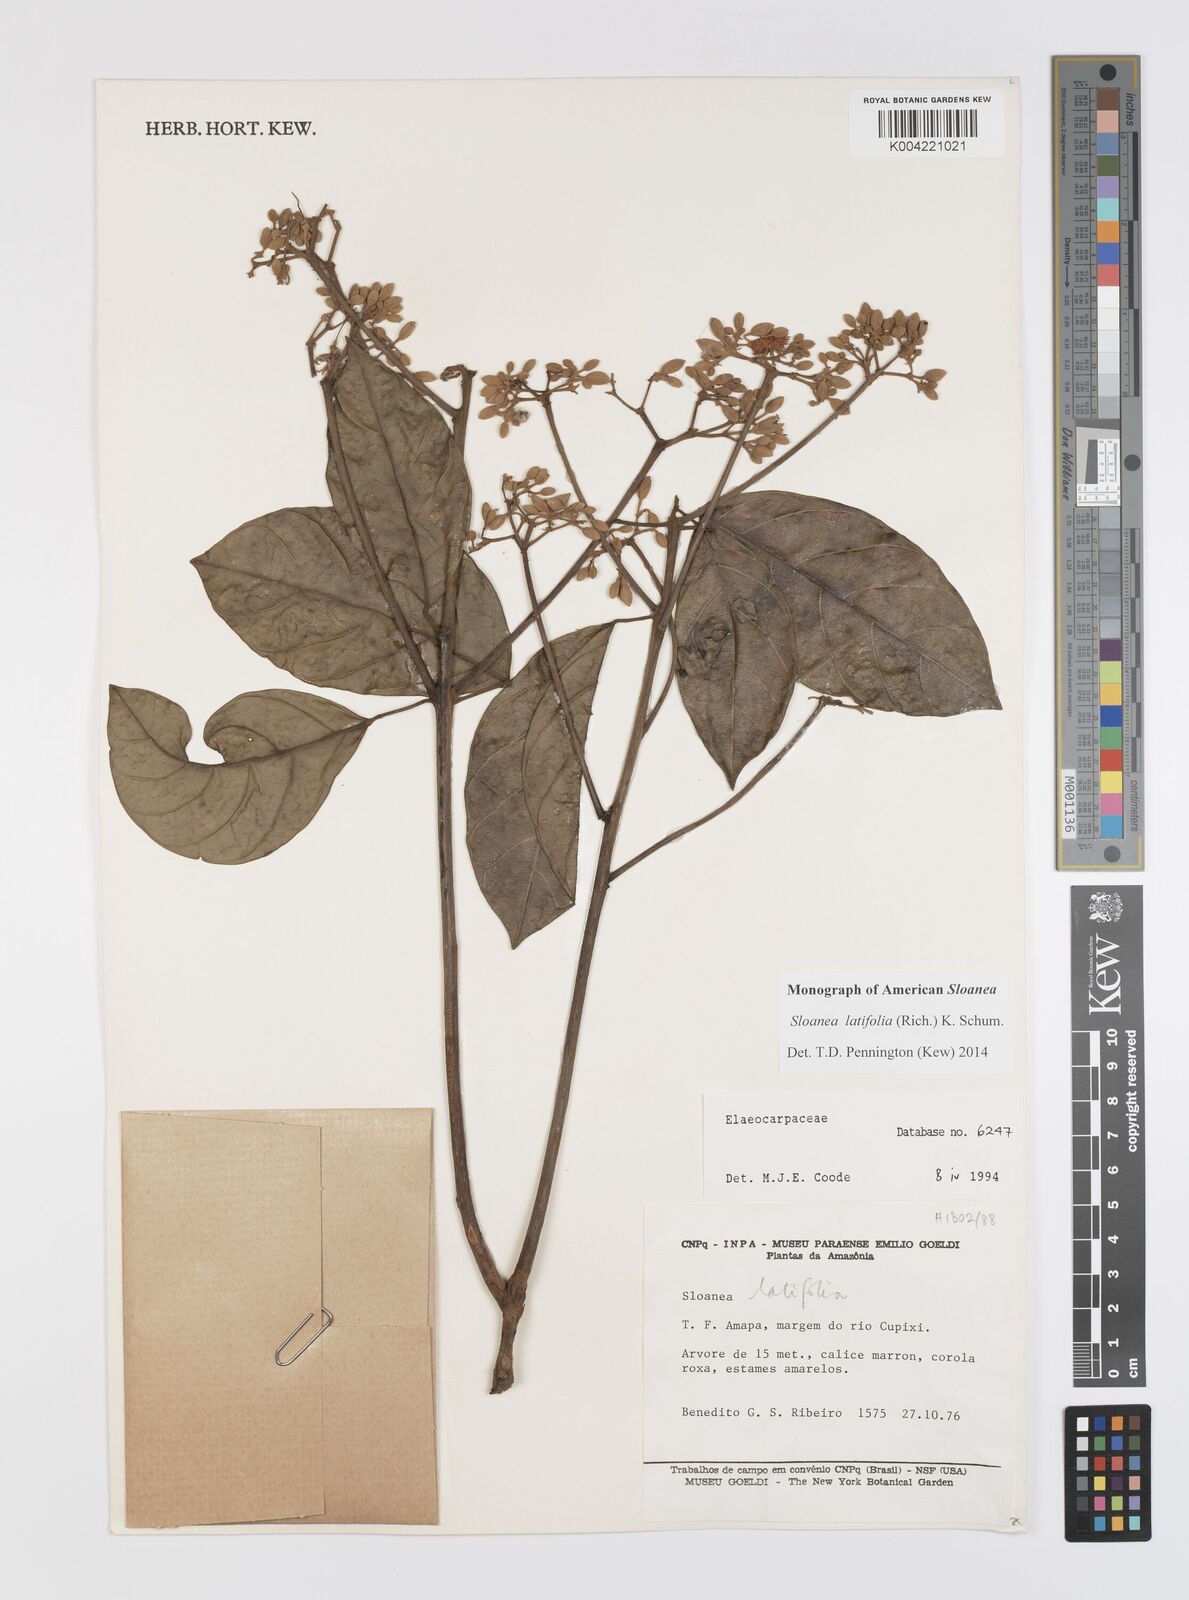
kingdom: Plantae
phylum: Tracheophyta
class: Magnoliopsida
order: Oxalidales
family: Elaeocarpaceae
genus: Sloanea
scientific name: Sloanea latifolia
